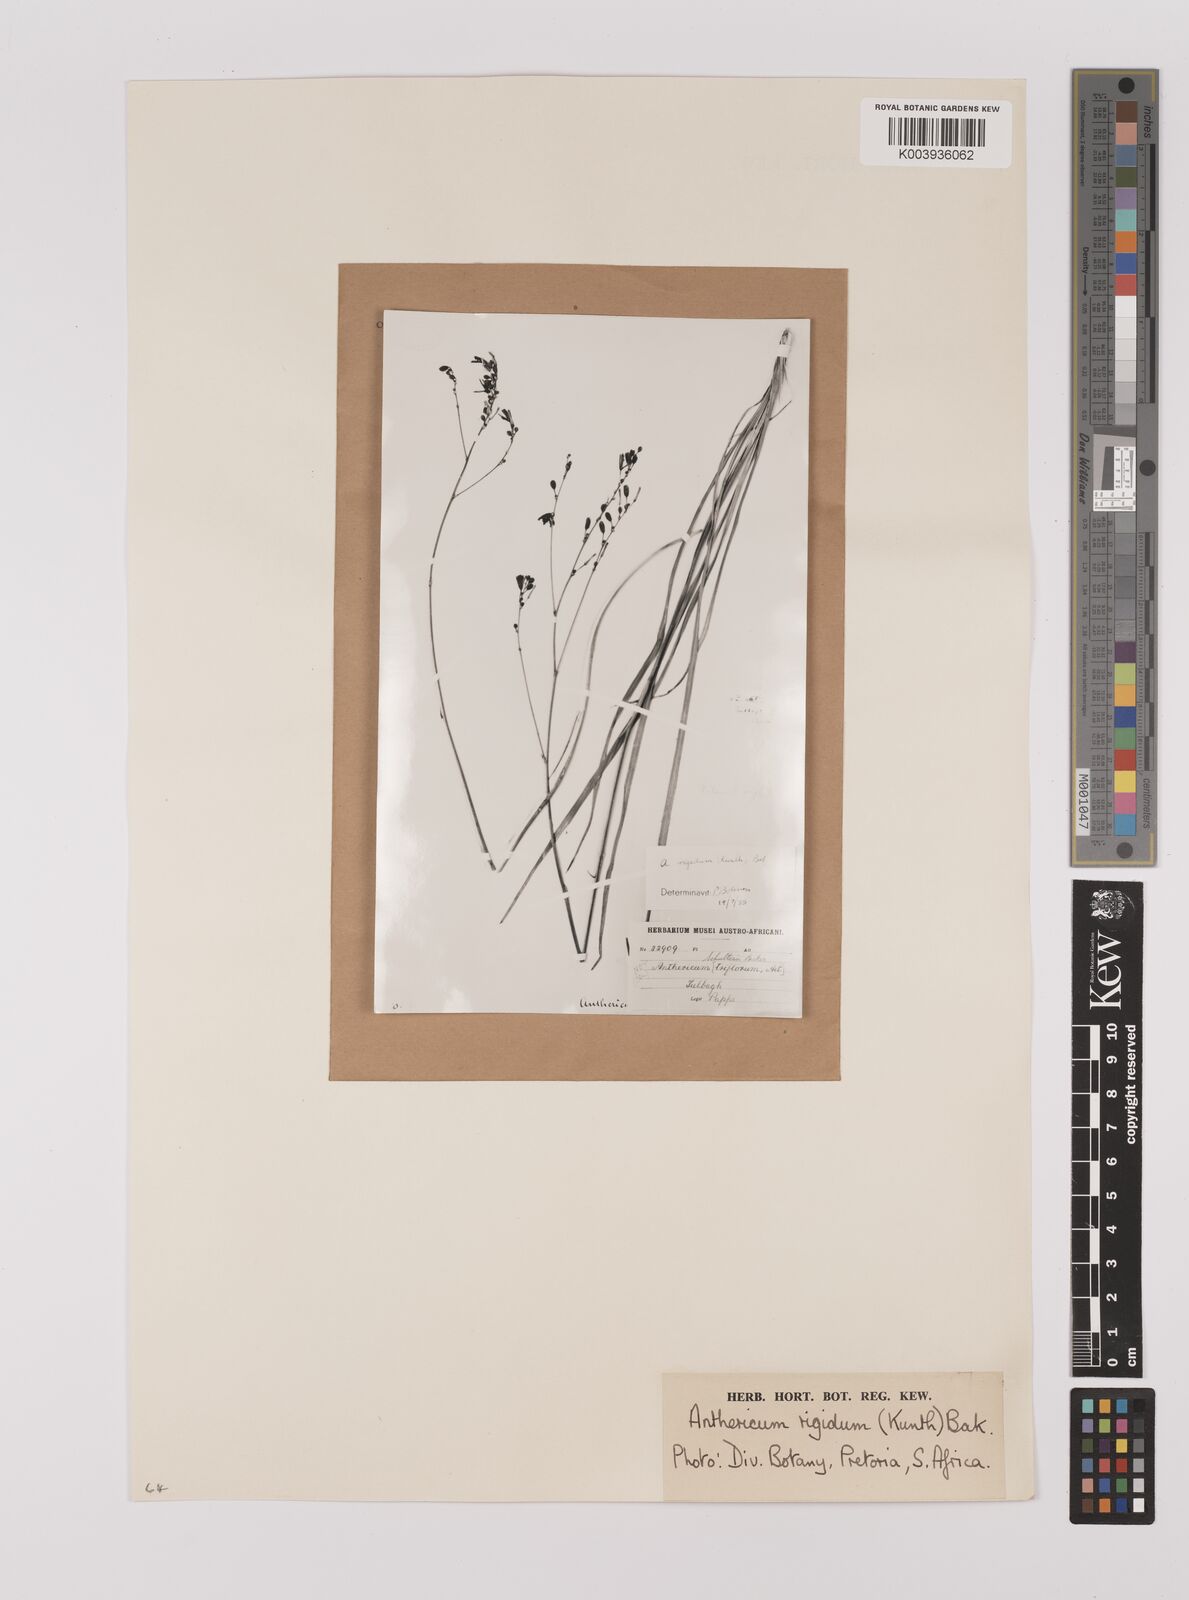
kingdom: Plantae
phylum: Tracheophyta
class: Liliopsida
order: Asparagales
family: Asparagaceae
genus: Chlorophytum
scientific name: Chlorophytum rigidum
